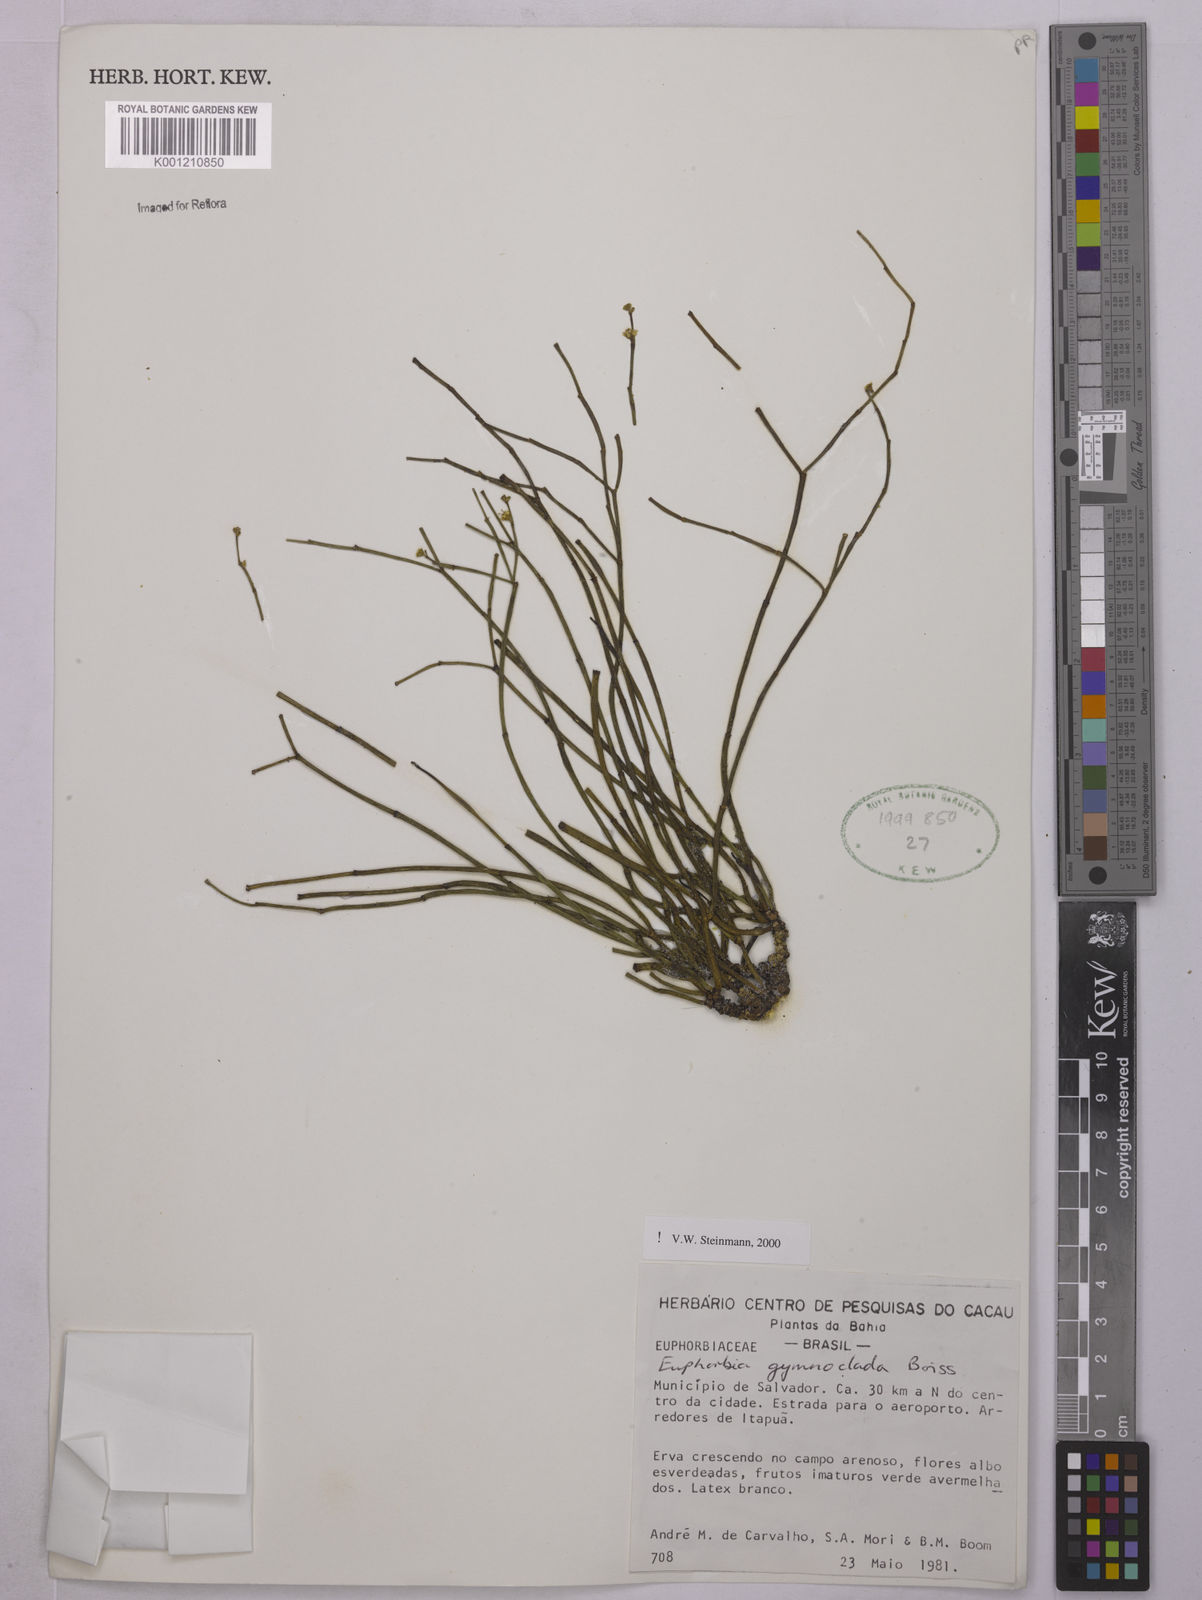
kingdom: Plantae
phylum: Tracheophyta
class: Magnoliopsida
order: Malpighiales
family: Euphorbiaceae
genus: Euphorbia
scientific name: Euphorbia gymnoclada
